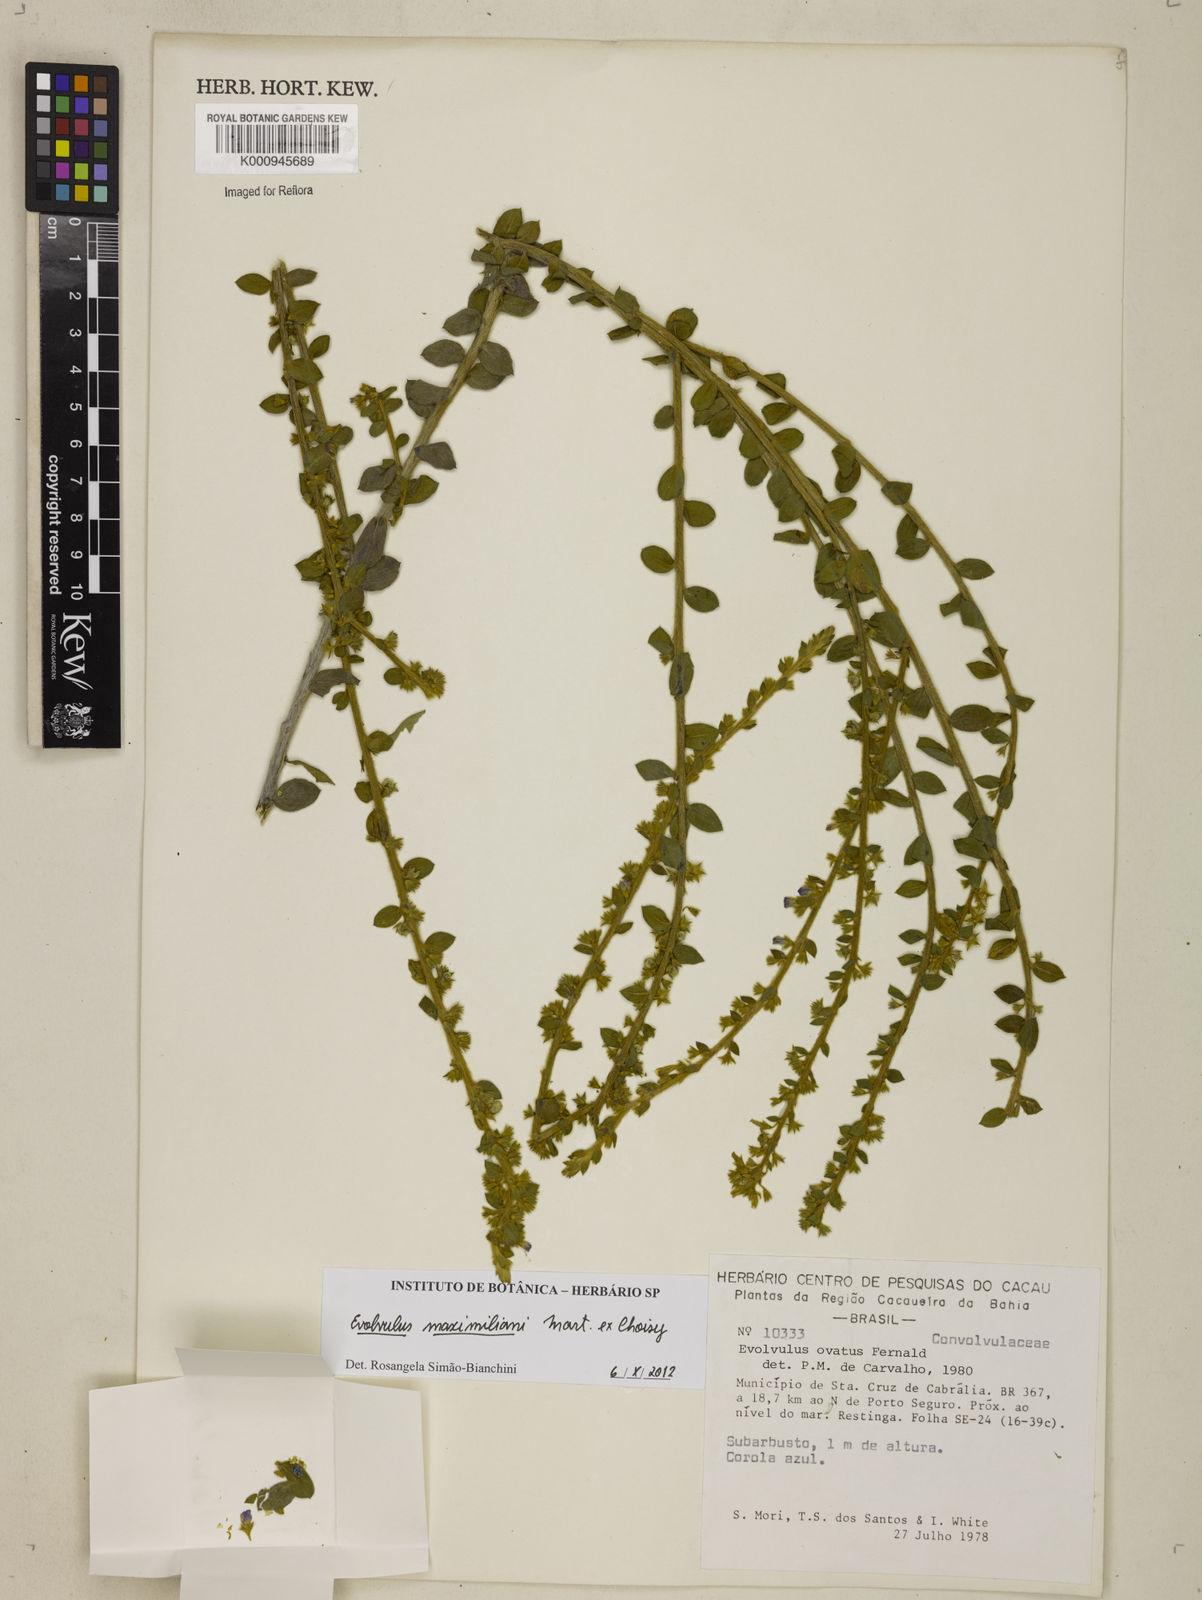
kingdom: Plantae
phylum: Tracheophyta
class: Magnoliopsida
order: Solanales
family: Convolvulaceae
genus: Evolvulus
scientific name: Evolvulus maximiliani
